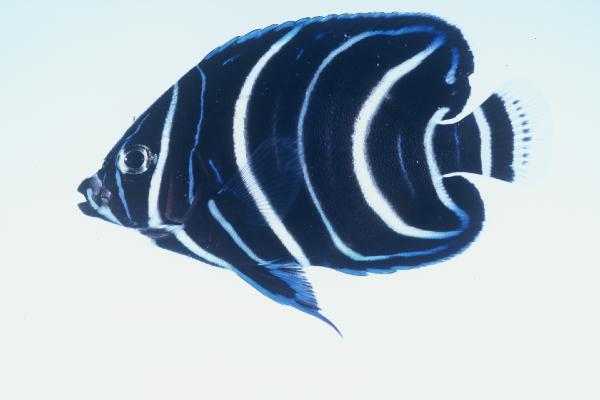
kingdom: Animalia
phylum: Chordata
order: Perciformes
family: Pomacanthidae
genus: Pomacanthus
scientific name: Pomacanthus semicirculatus
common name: Semicircle angelfish
